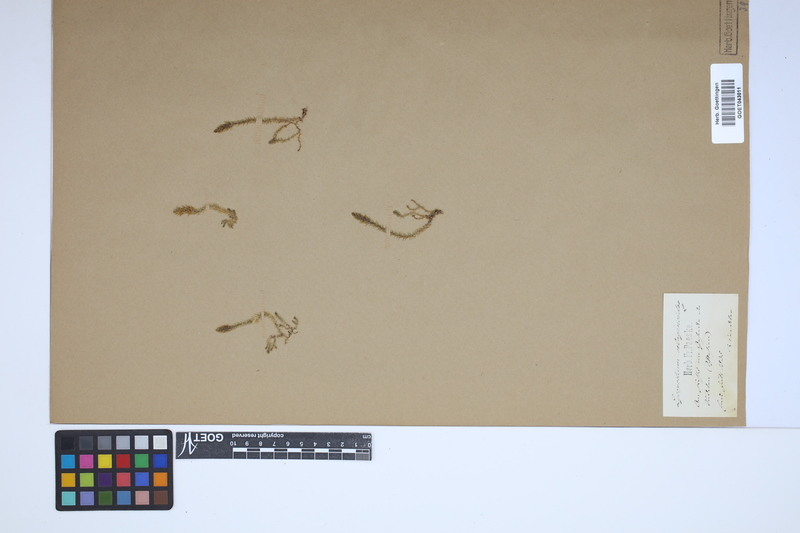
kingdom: Plantae
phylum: Tracheophyta
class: Lycopodiopsida
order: Selaginellales
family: Selaginellaceae
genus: Selaginella
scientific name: Selaginella selaginoides
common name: Prickly mountain-moss
